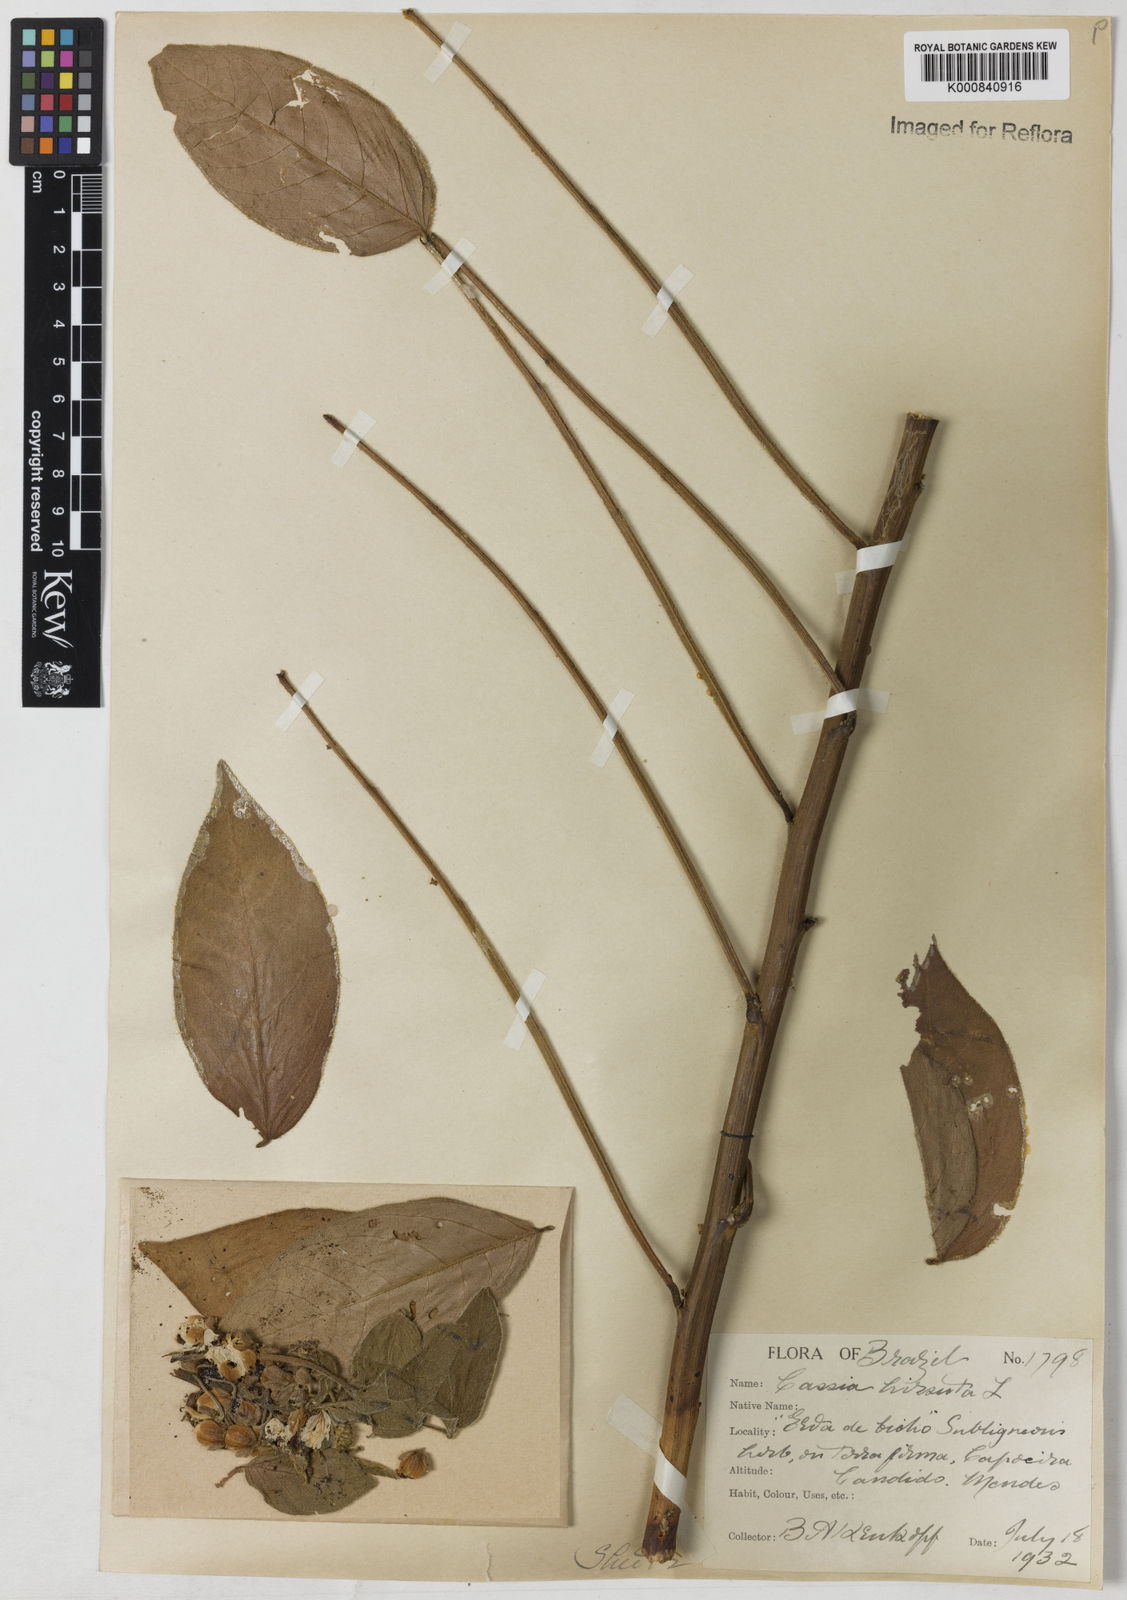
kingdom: Plantae
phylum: Tracheophyta
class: Magnoliopsida
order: Fabales
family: Fabaceae
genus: Senna
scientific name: Senna hirsuta
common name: Woolly senna
